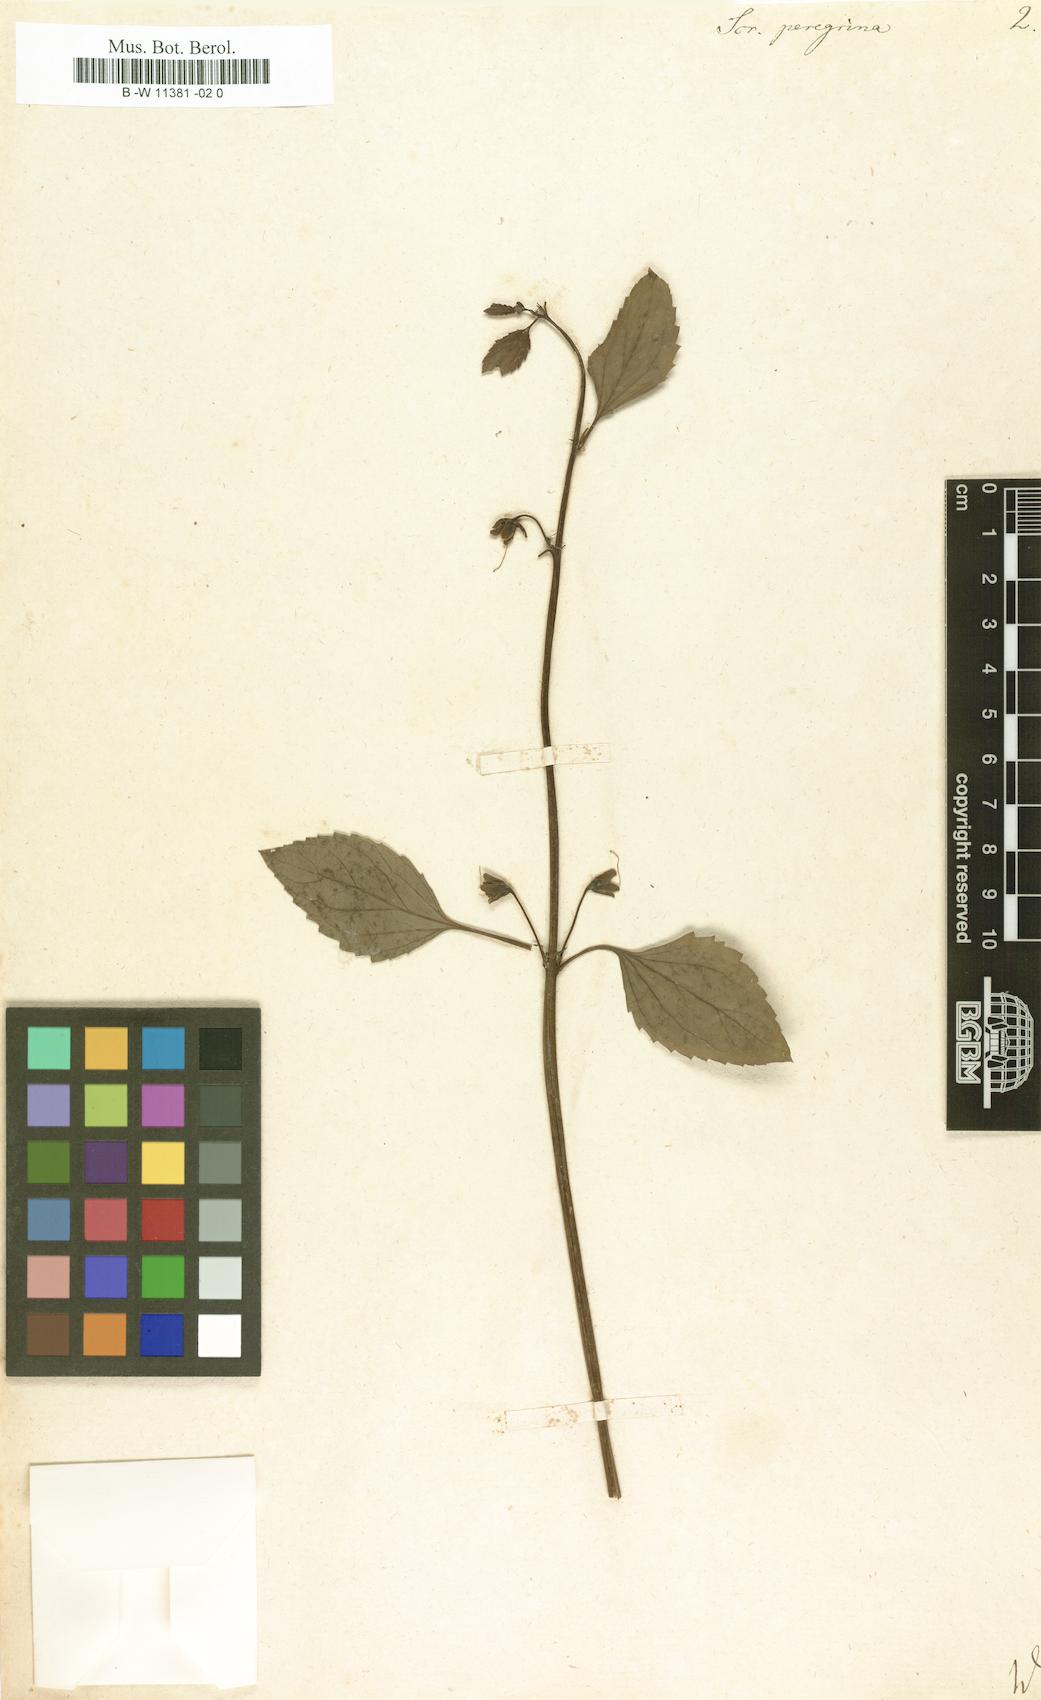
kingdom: Plantae
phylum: Tracheophyta
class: Magnoliopsida
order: Lamiales
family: Scrophulariaceae
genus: Scrophularia
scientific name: Scrophularia peregrina
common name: Mediterranean figwort
